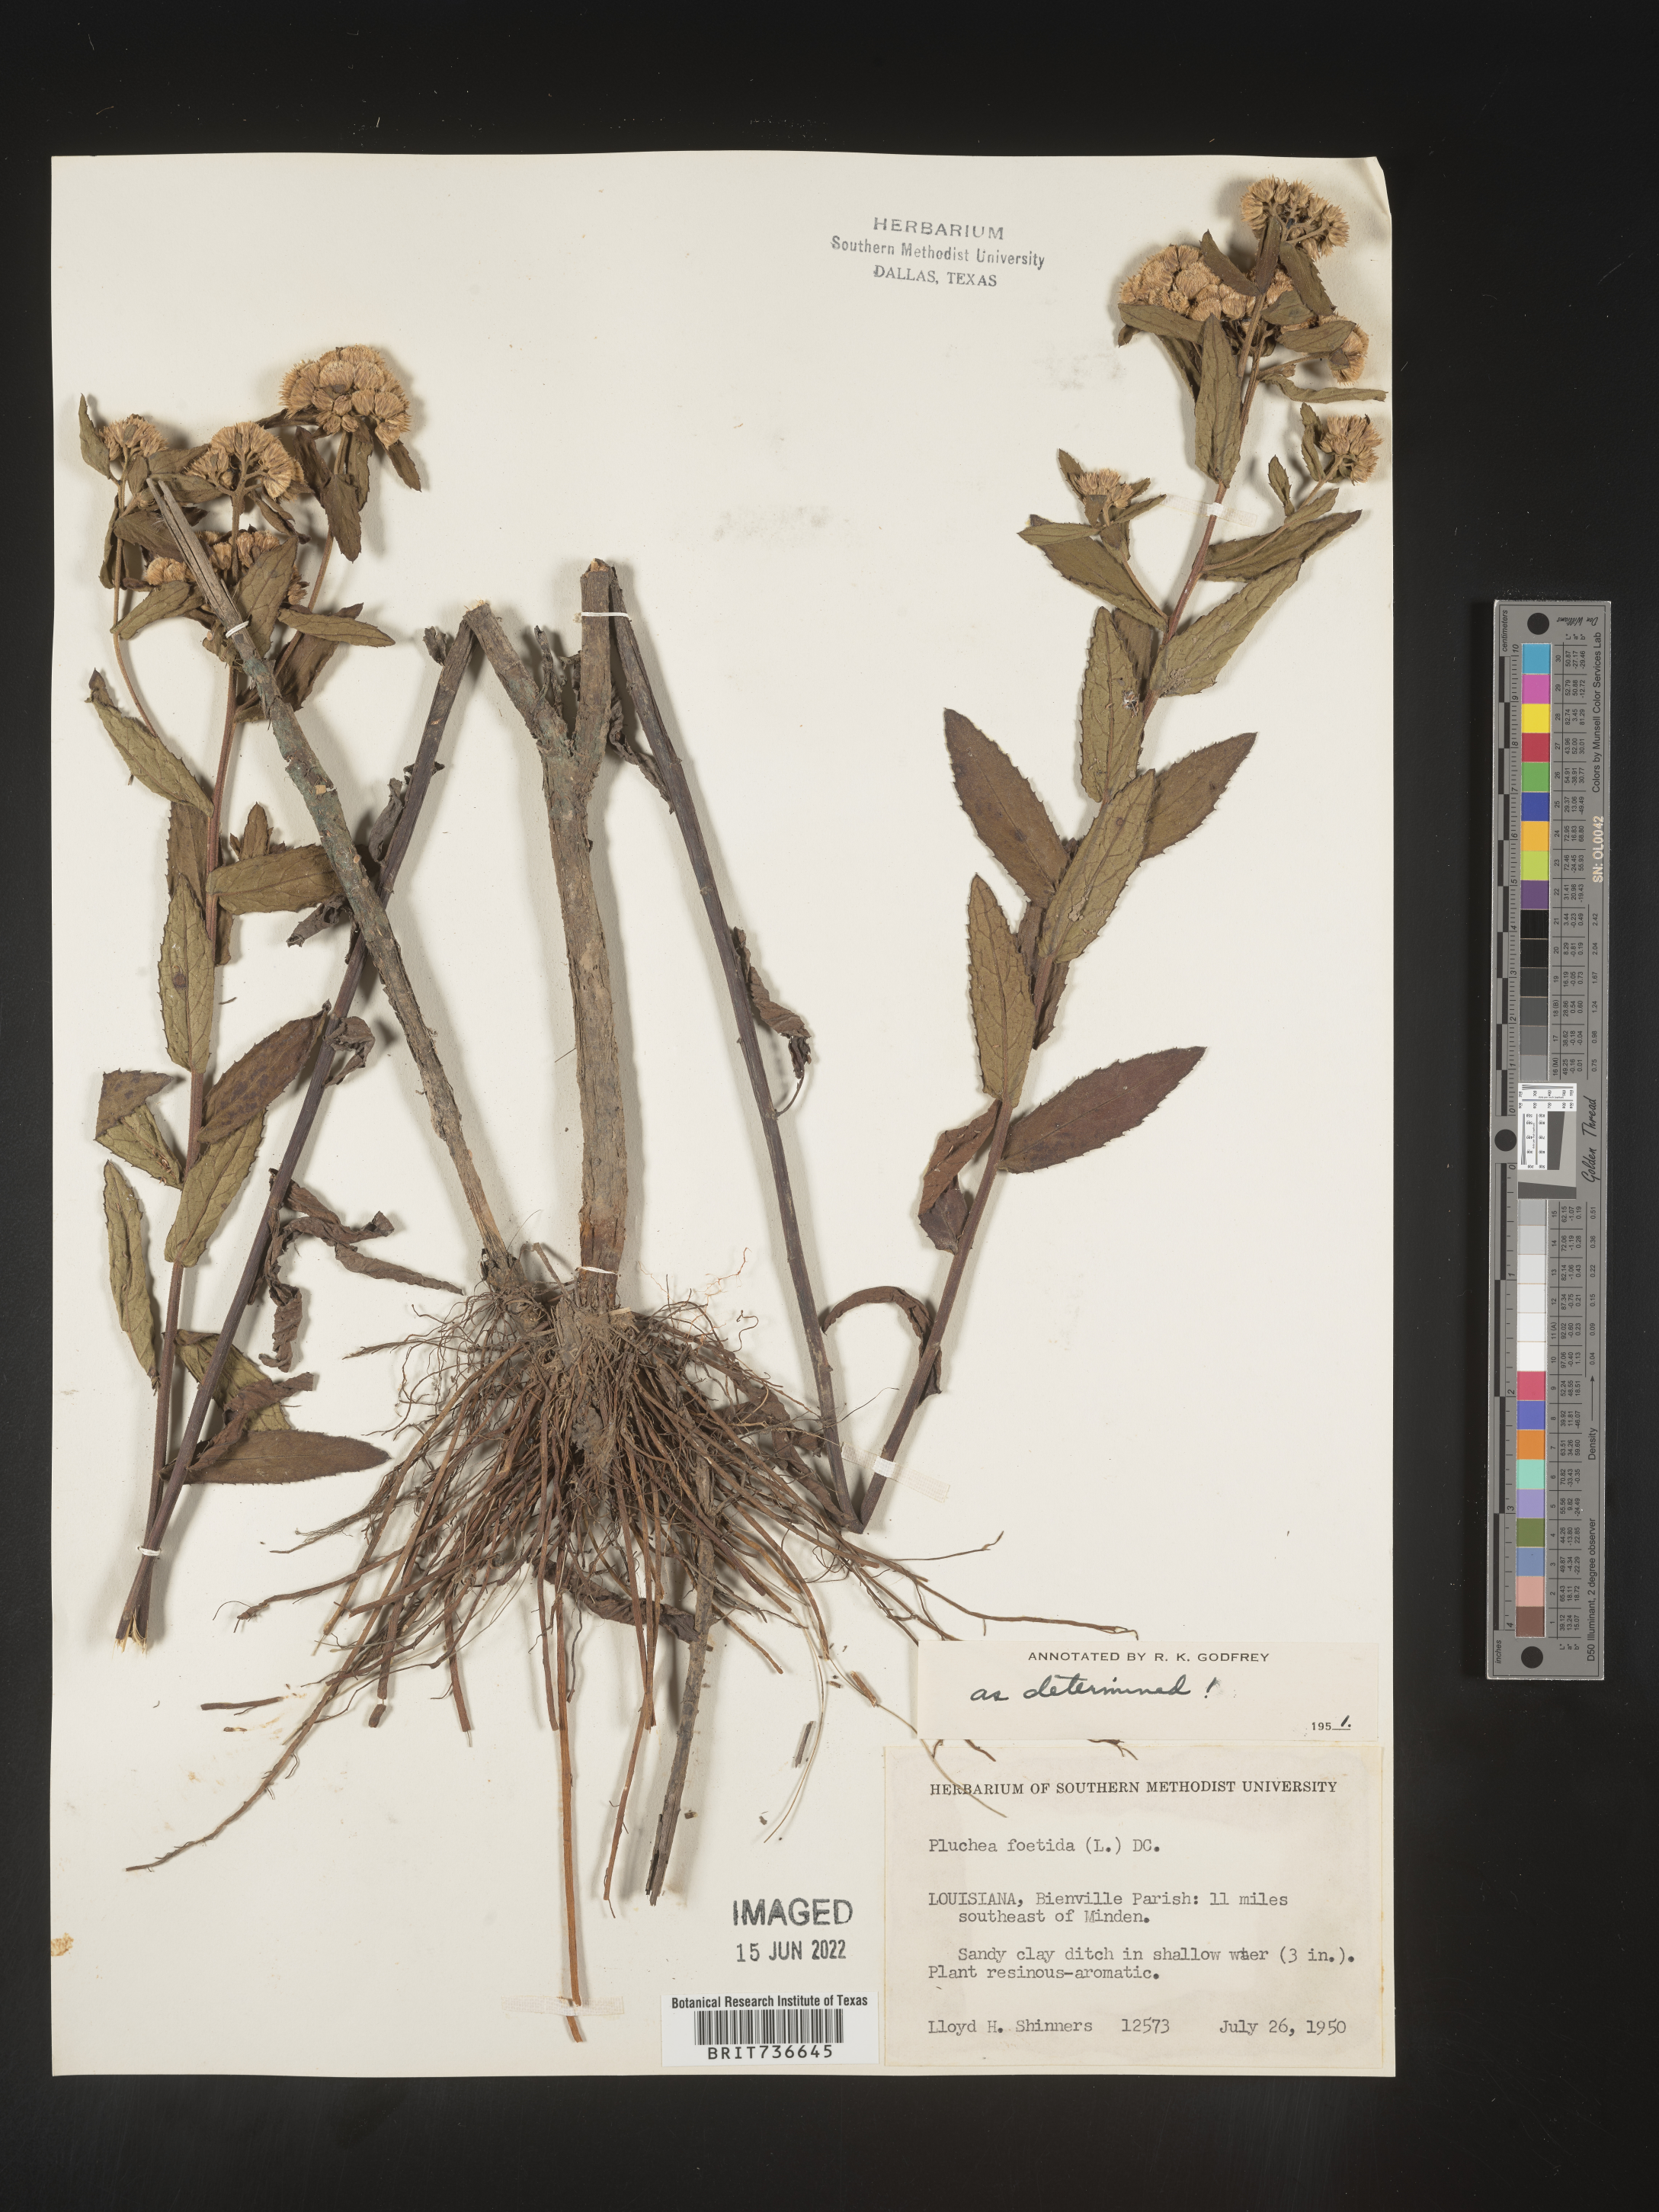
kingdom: Plantae
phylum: Tracheophyta
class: Magnoliopsida
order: Asterales
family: Asteraceae
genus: Pluchea
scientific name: Pluchea foetida
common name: Stinking camphorweed
